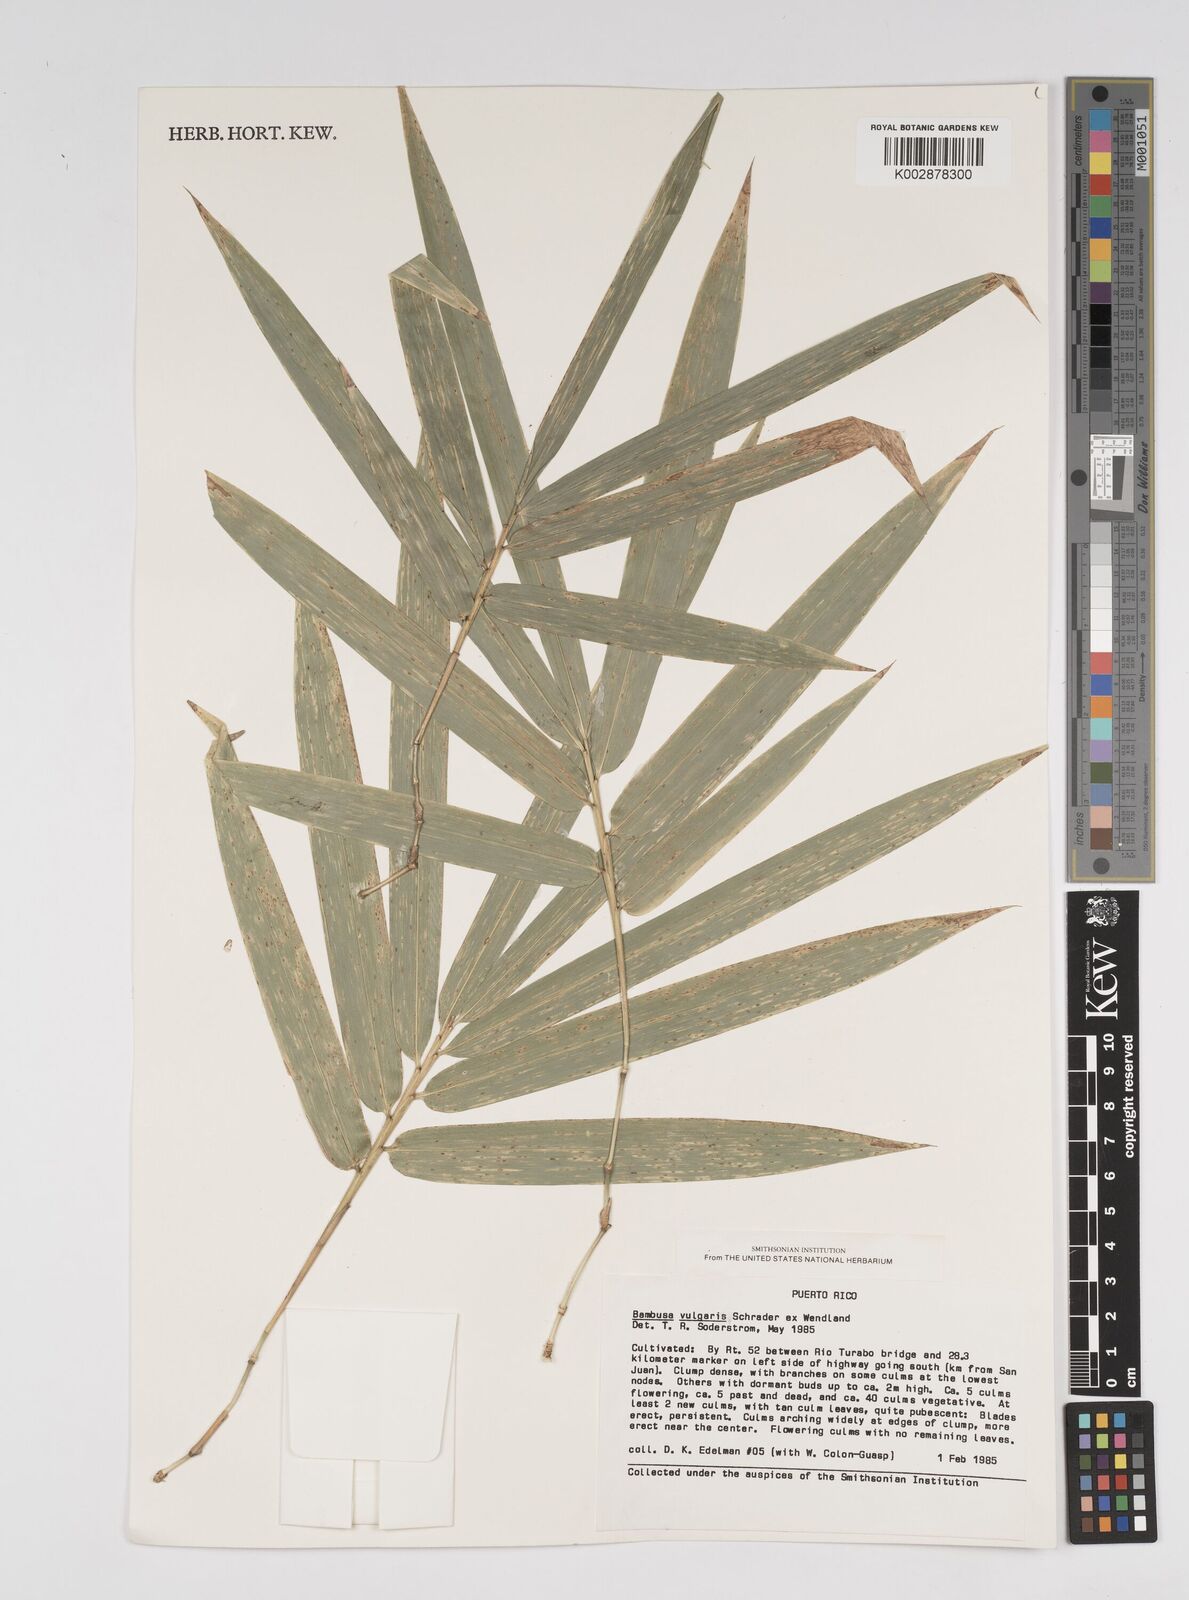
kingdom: Plantae
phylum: Tracheophyta
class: Liliopsida
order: Poales
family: Poaceae
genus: Bambusa
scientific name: Bambusa vulgaris
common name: Common bamboo
